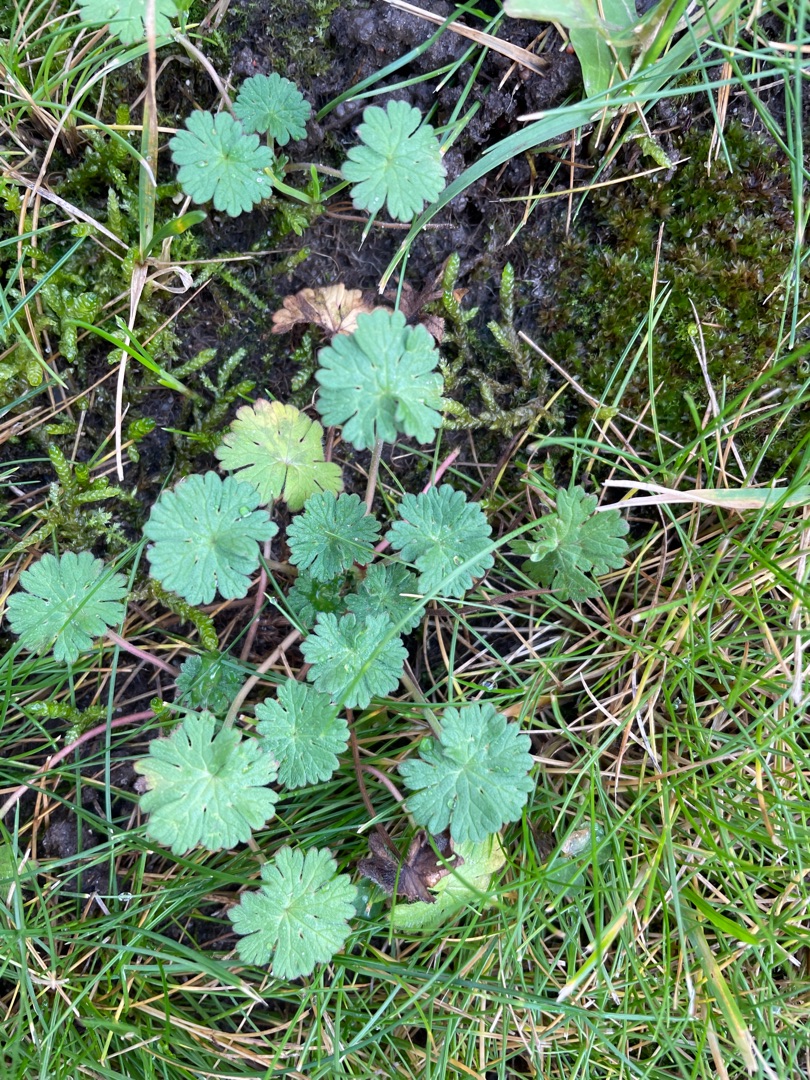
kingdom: Plantae
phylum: Tracheophyta
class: Magnoliopsida
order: Geraniales
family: Geraniaceae
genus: Geranium
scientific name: Geranium pusillum
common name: Liden storkenæb
